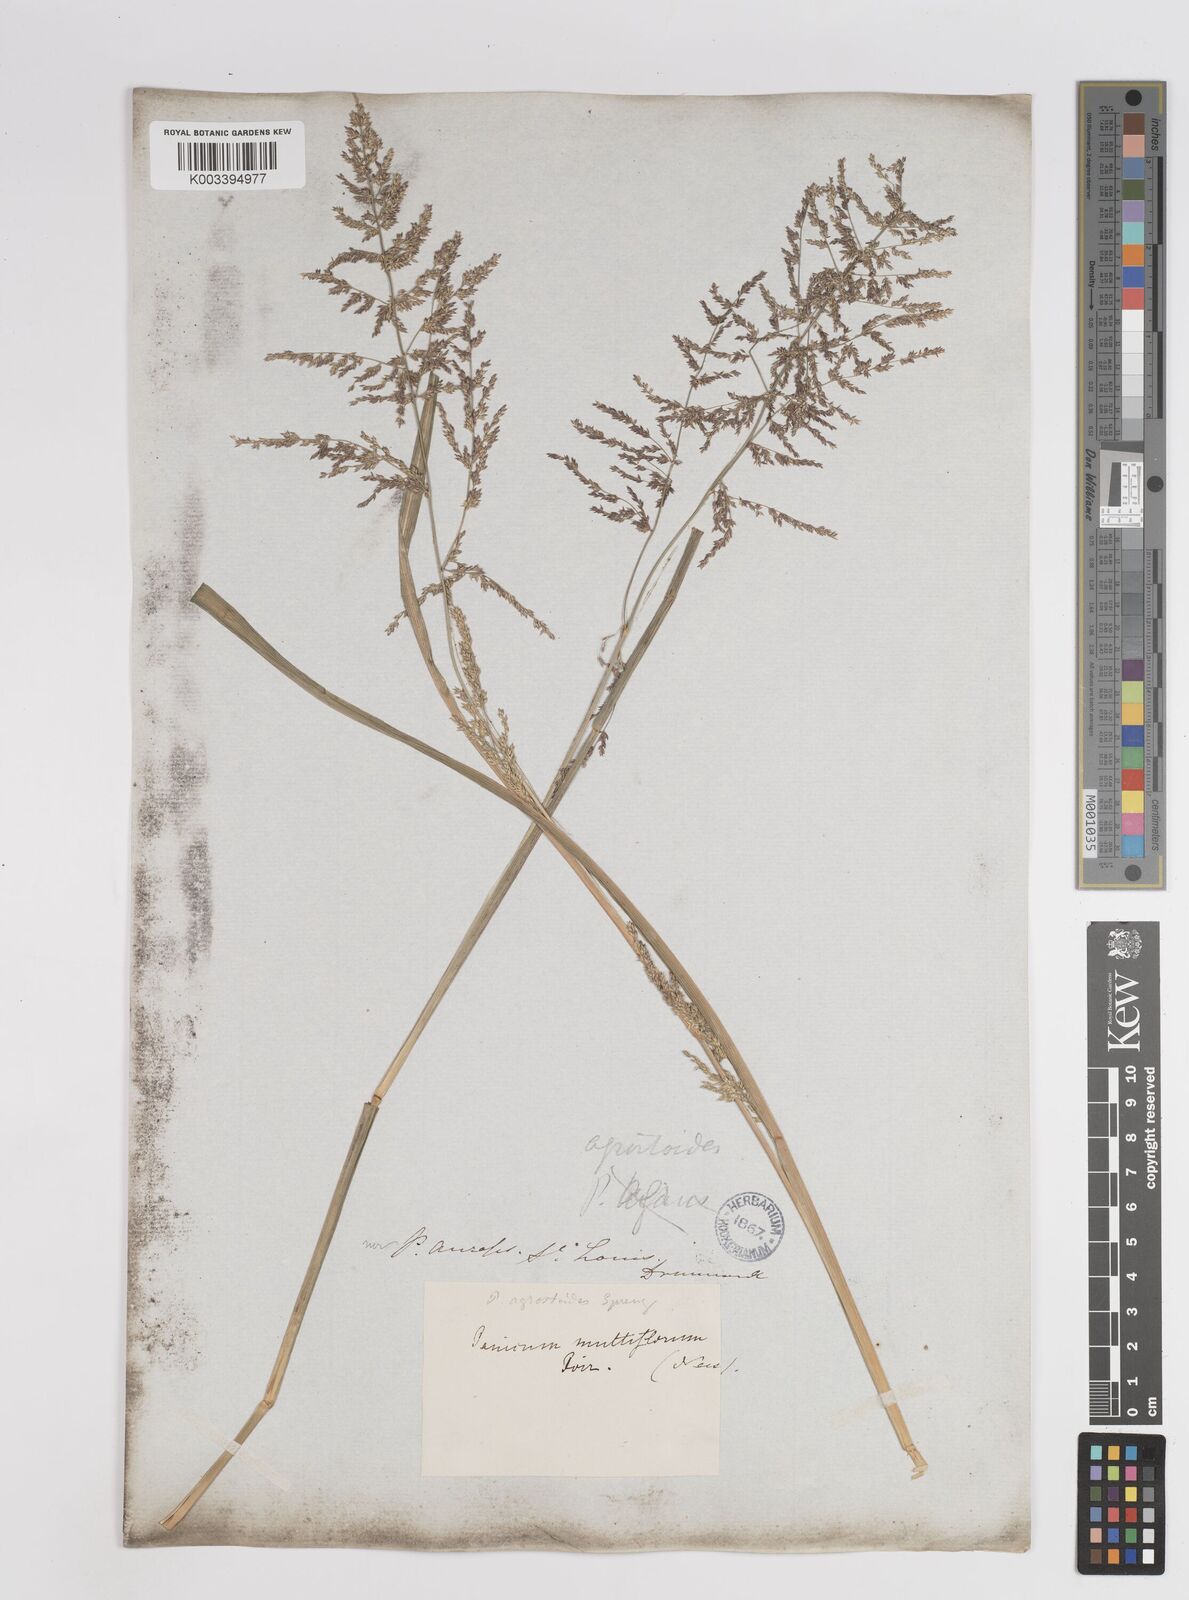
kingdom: Plantae
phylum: Tracheophyta
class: Liliopsida
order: Poales
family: Poaceae
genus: Steinchisma
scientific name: Steinchisma laxum
